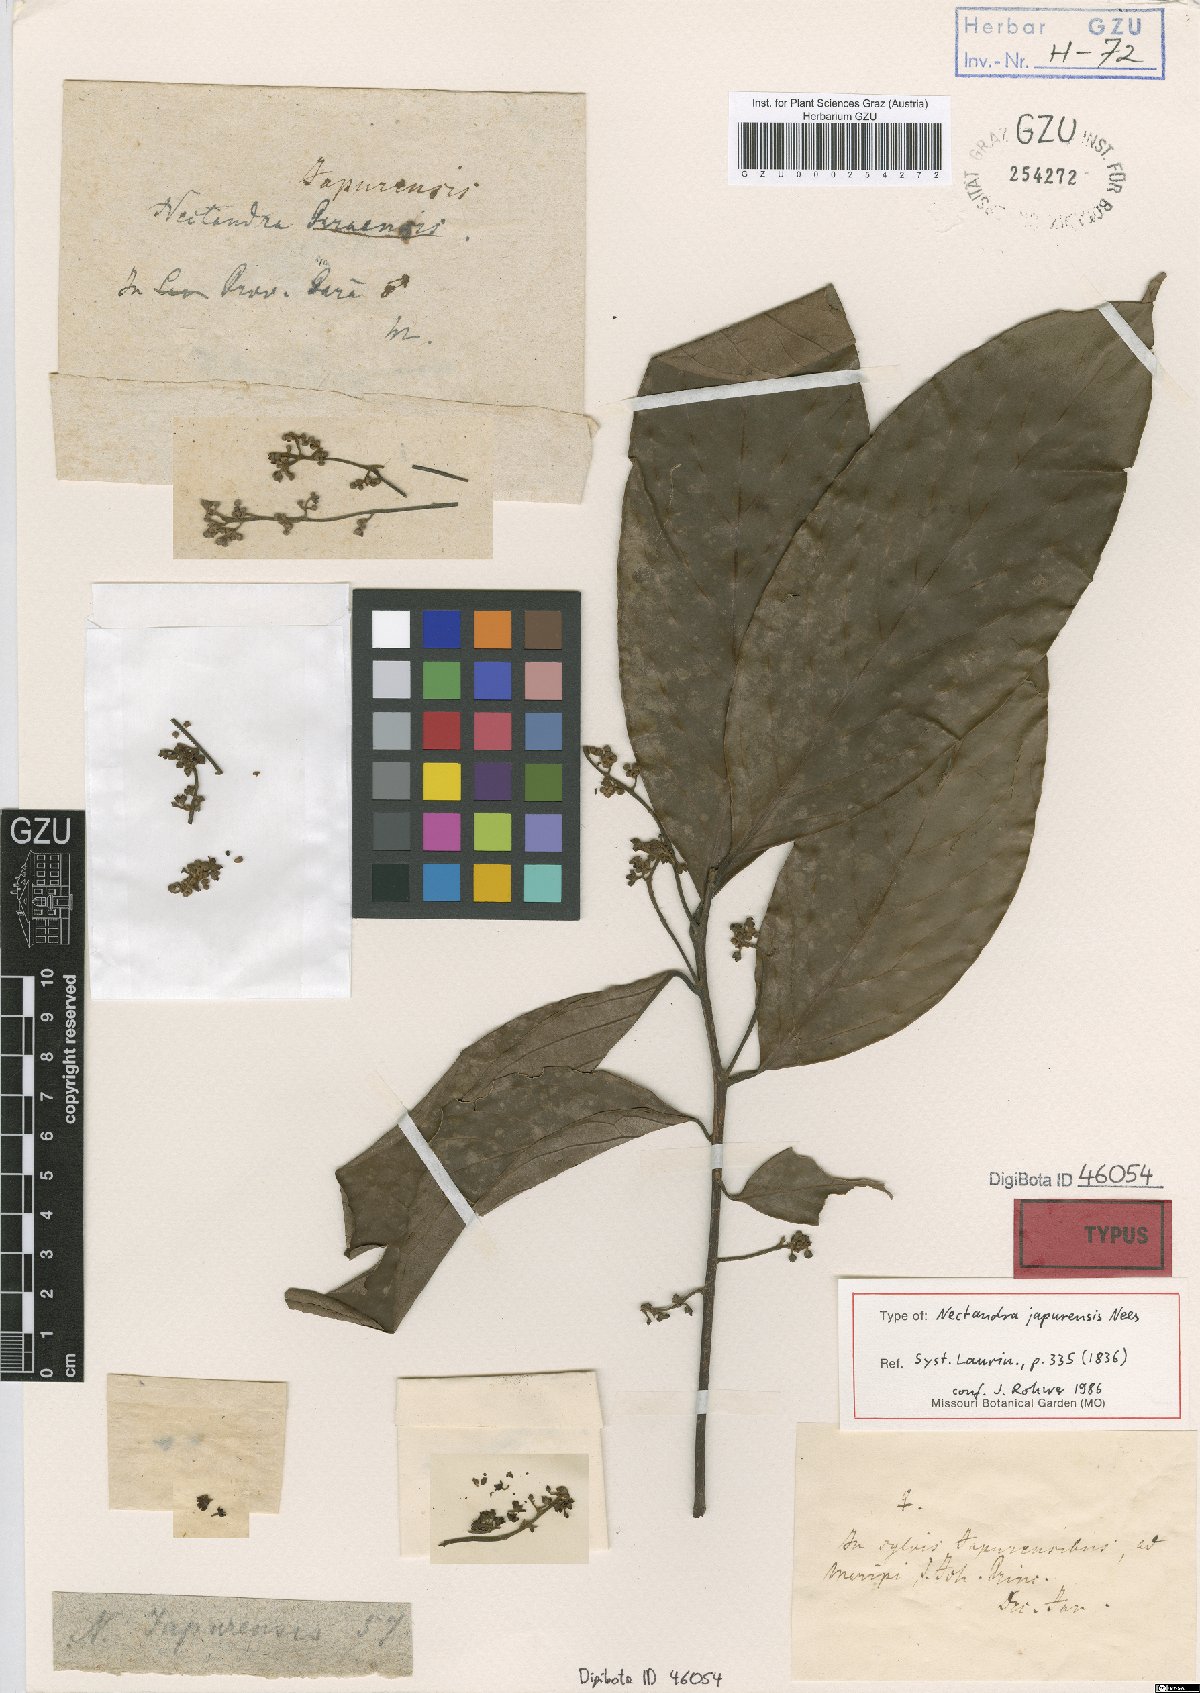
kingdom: Plantae
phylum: Tracheophyta
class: Magnoliopsida
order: Laurales
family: Lauraceae
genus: Nectandra
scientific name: Nectandra japurensis
